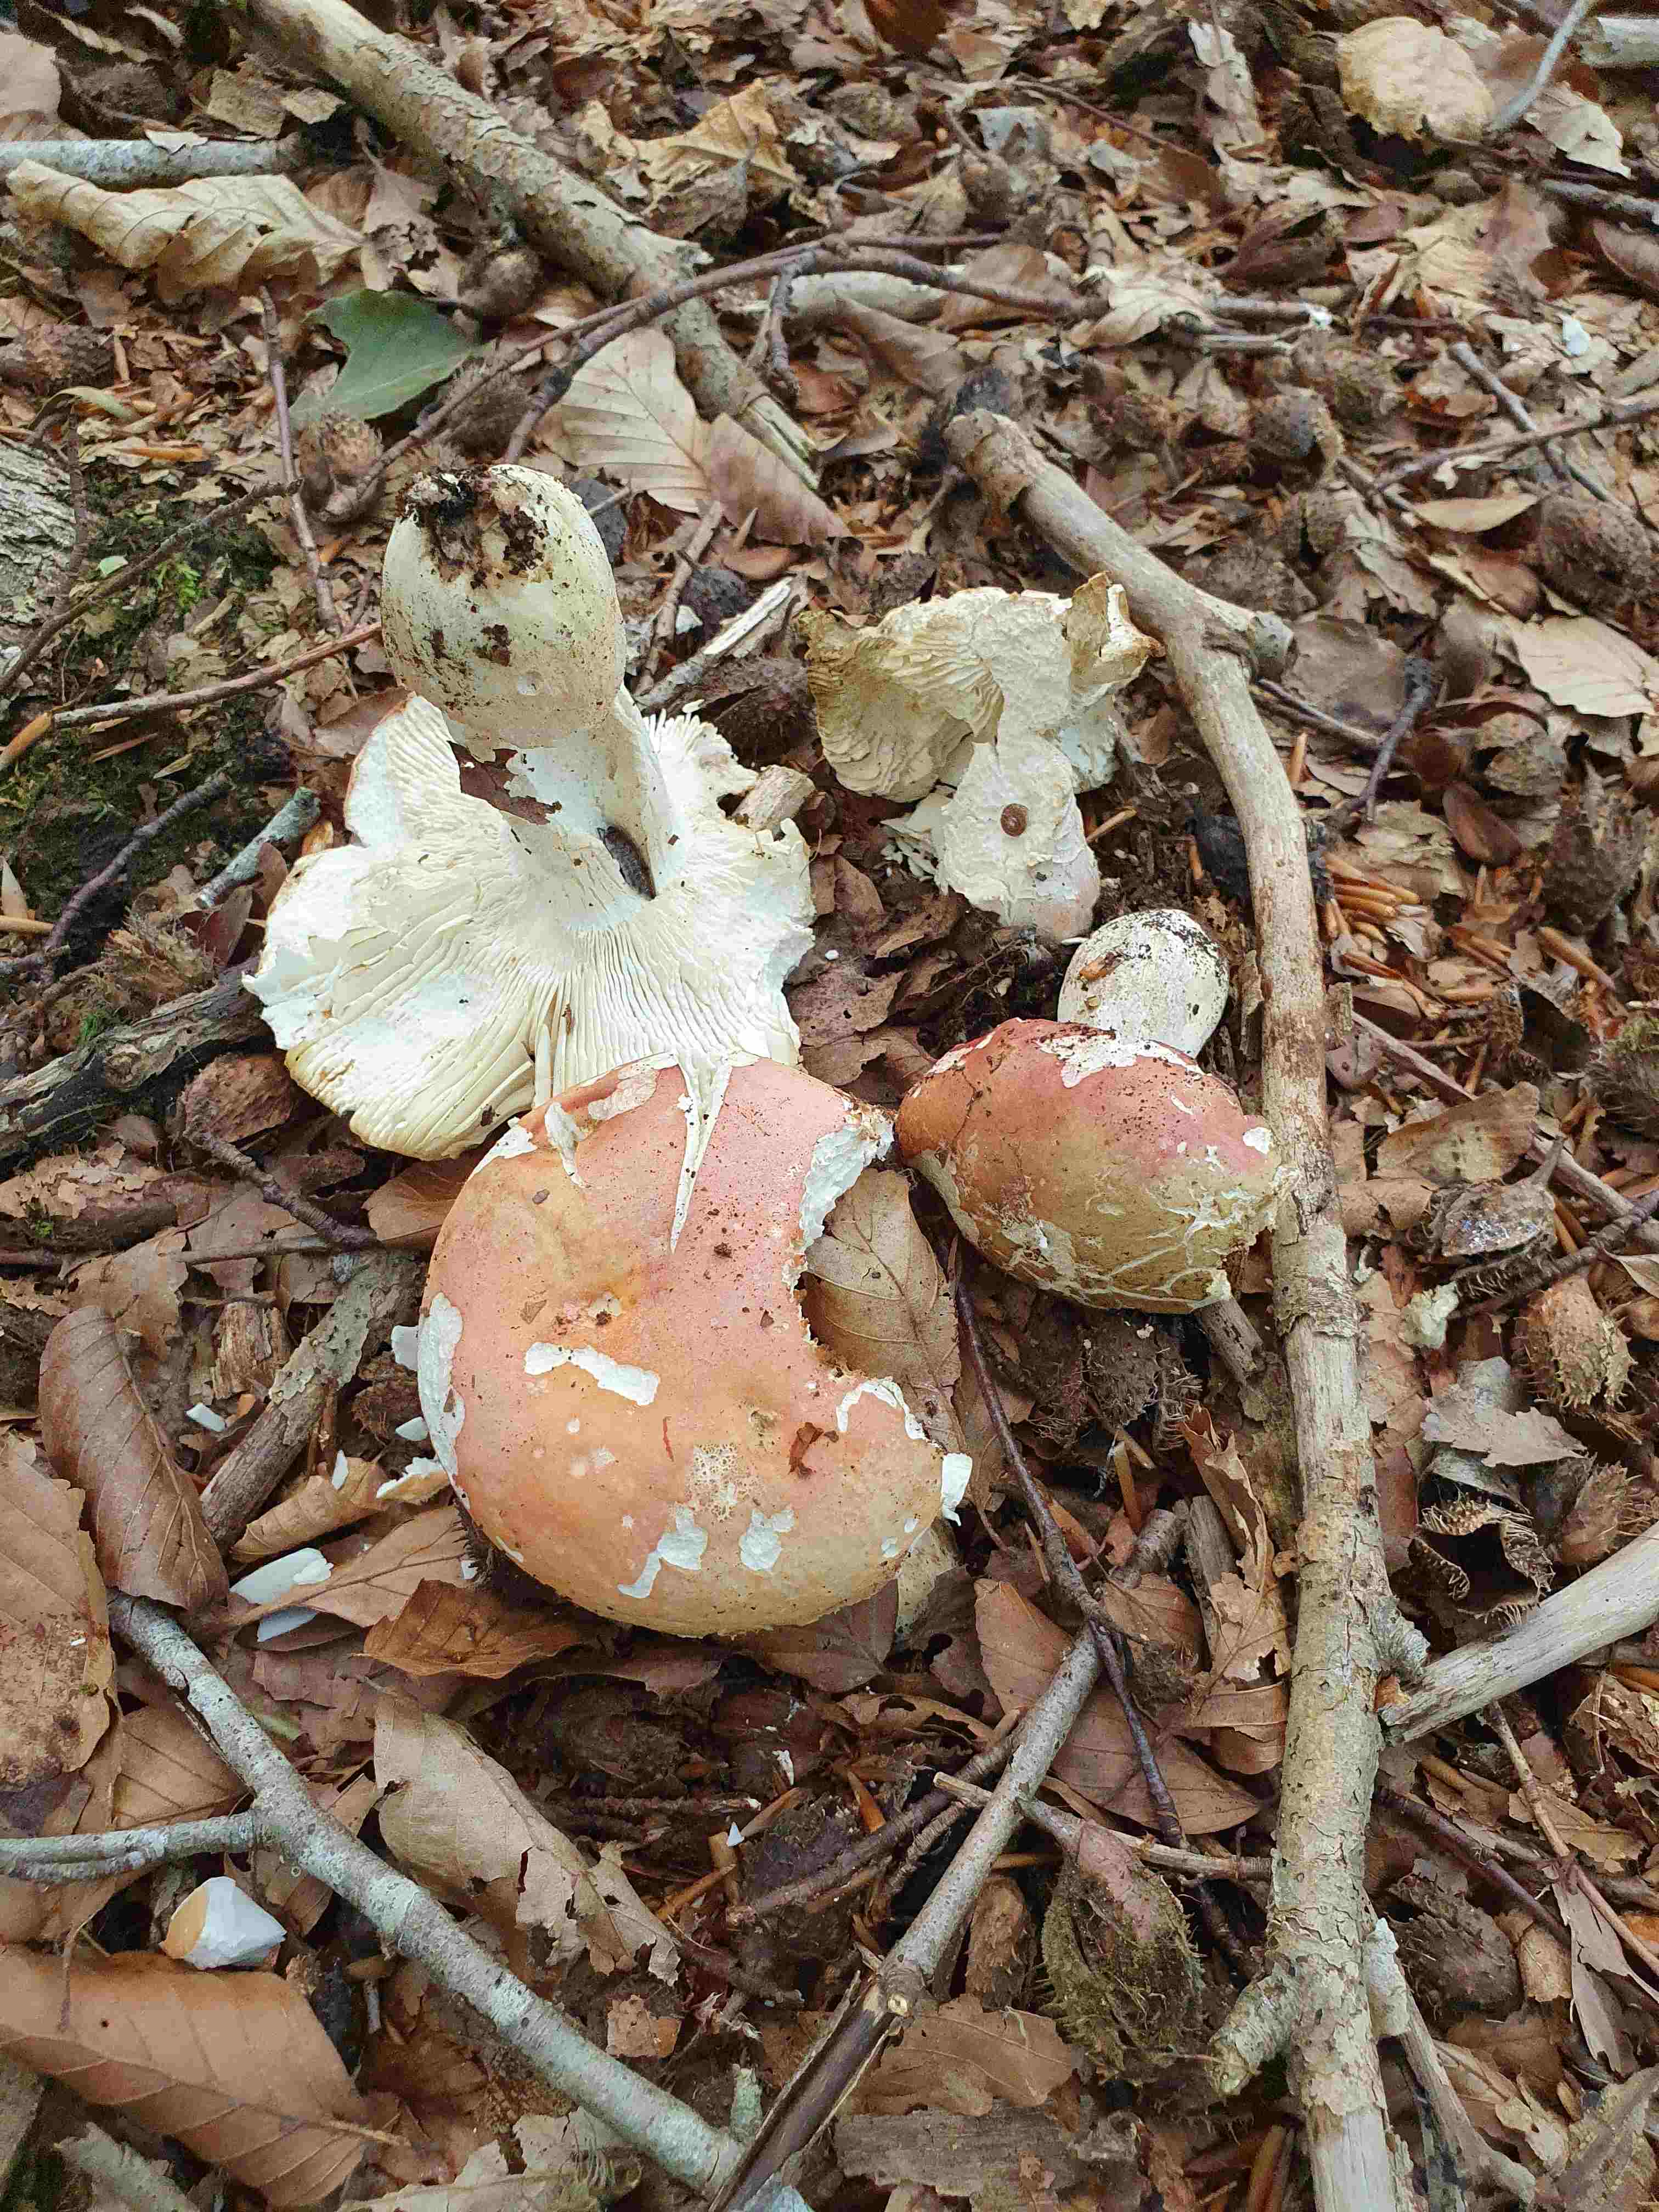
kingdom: Fungi
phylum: Basidiomycota
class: Agaricomycetes
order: Russulales
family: Russulaceae
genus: Russula
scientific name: Russula rosea
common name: fastkødet skørhat
